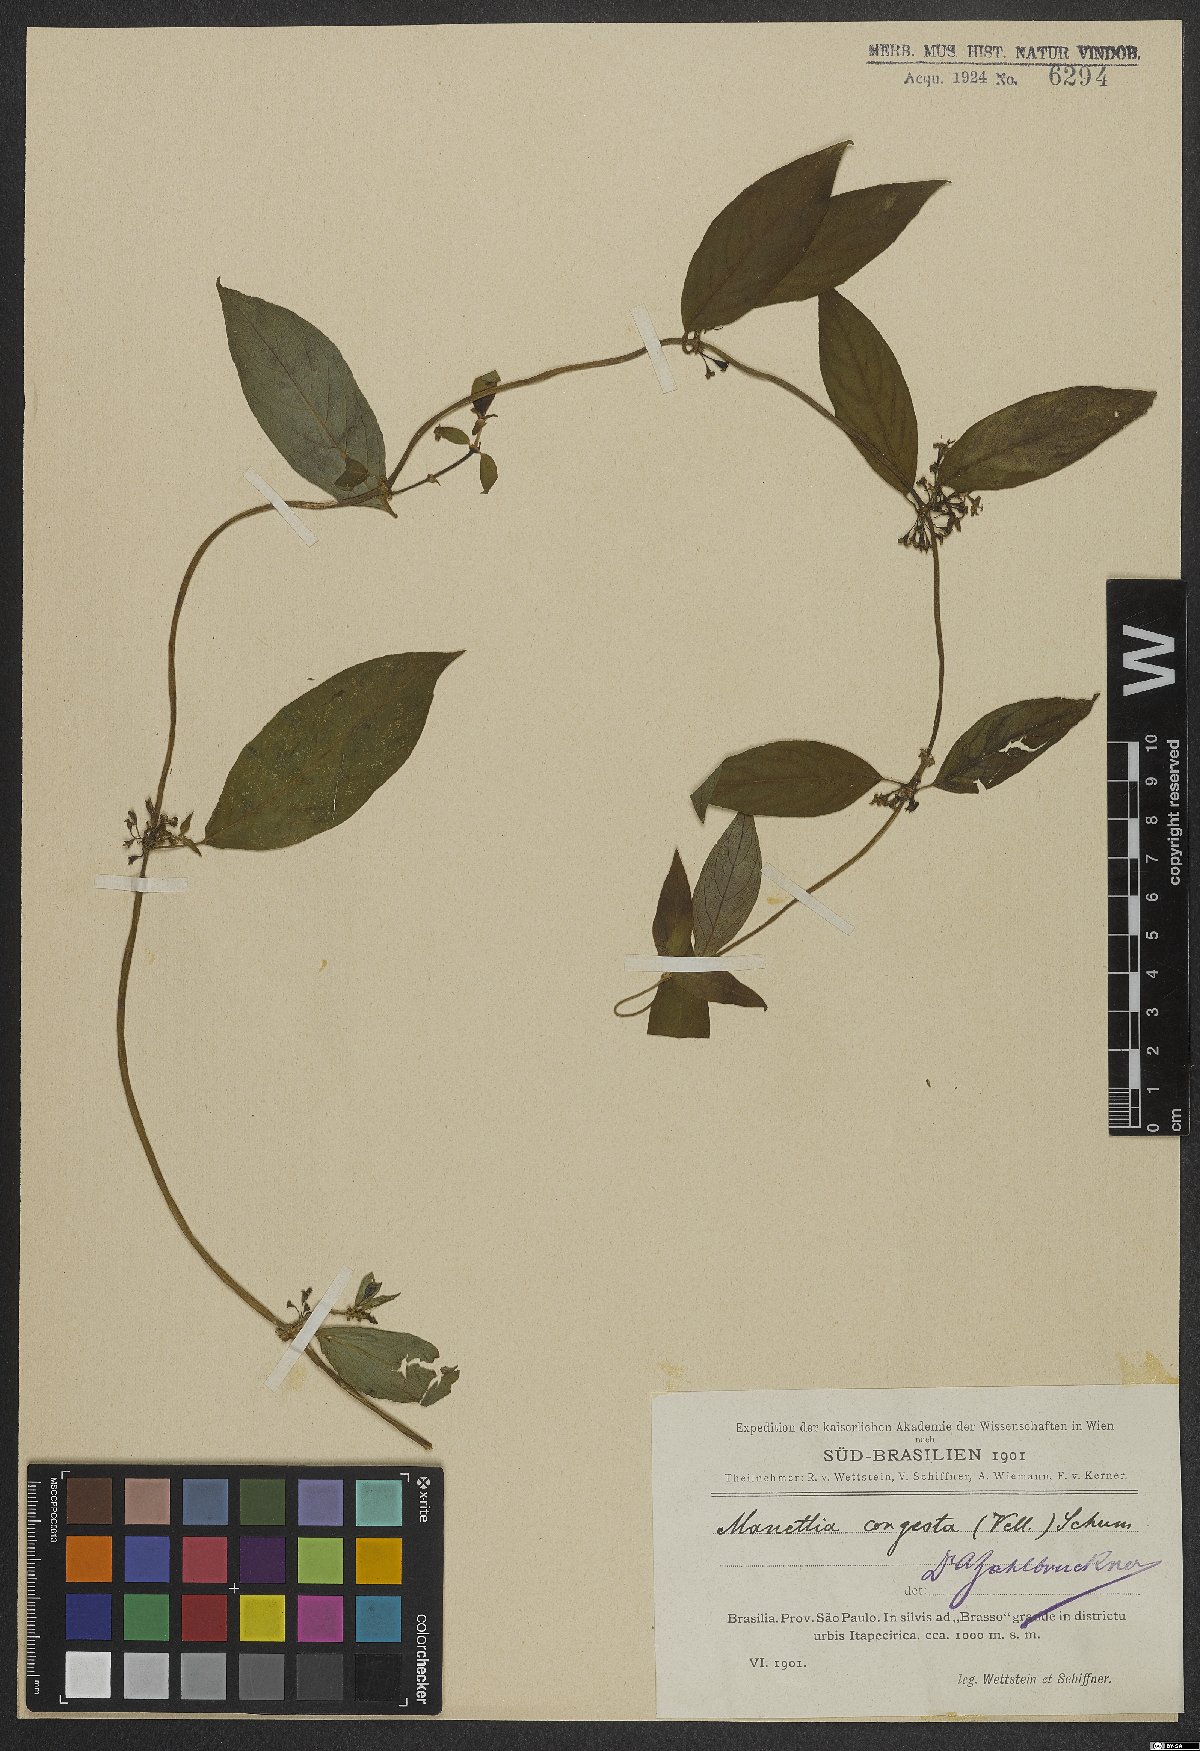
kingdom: Plantae
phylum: Tracheophyta
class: Magnoliopsida
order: Gentianales
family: Rubiaceae
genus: Manettia
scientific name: Manettia congesta
